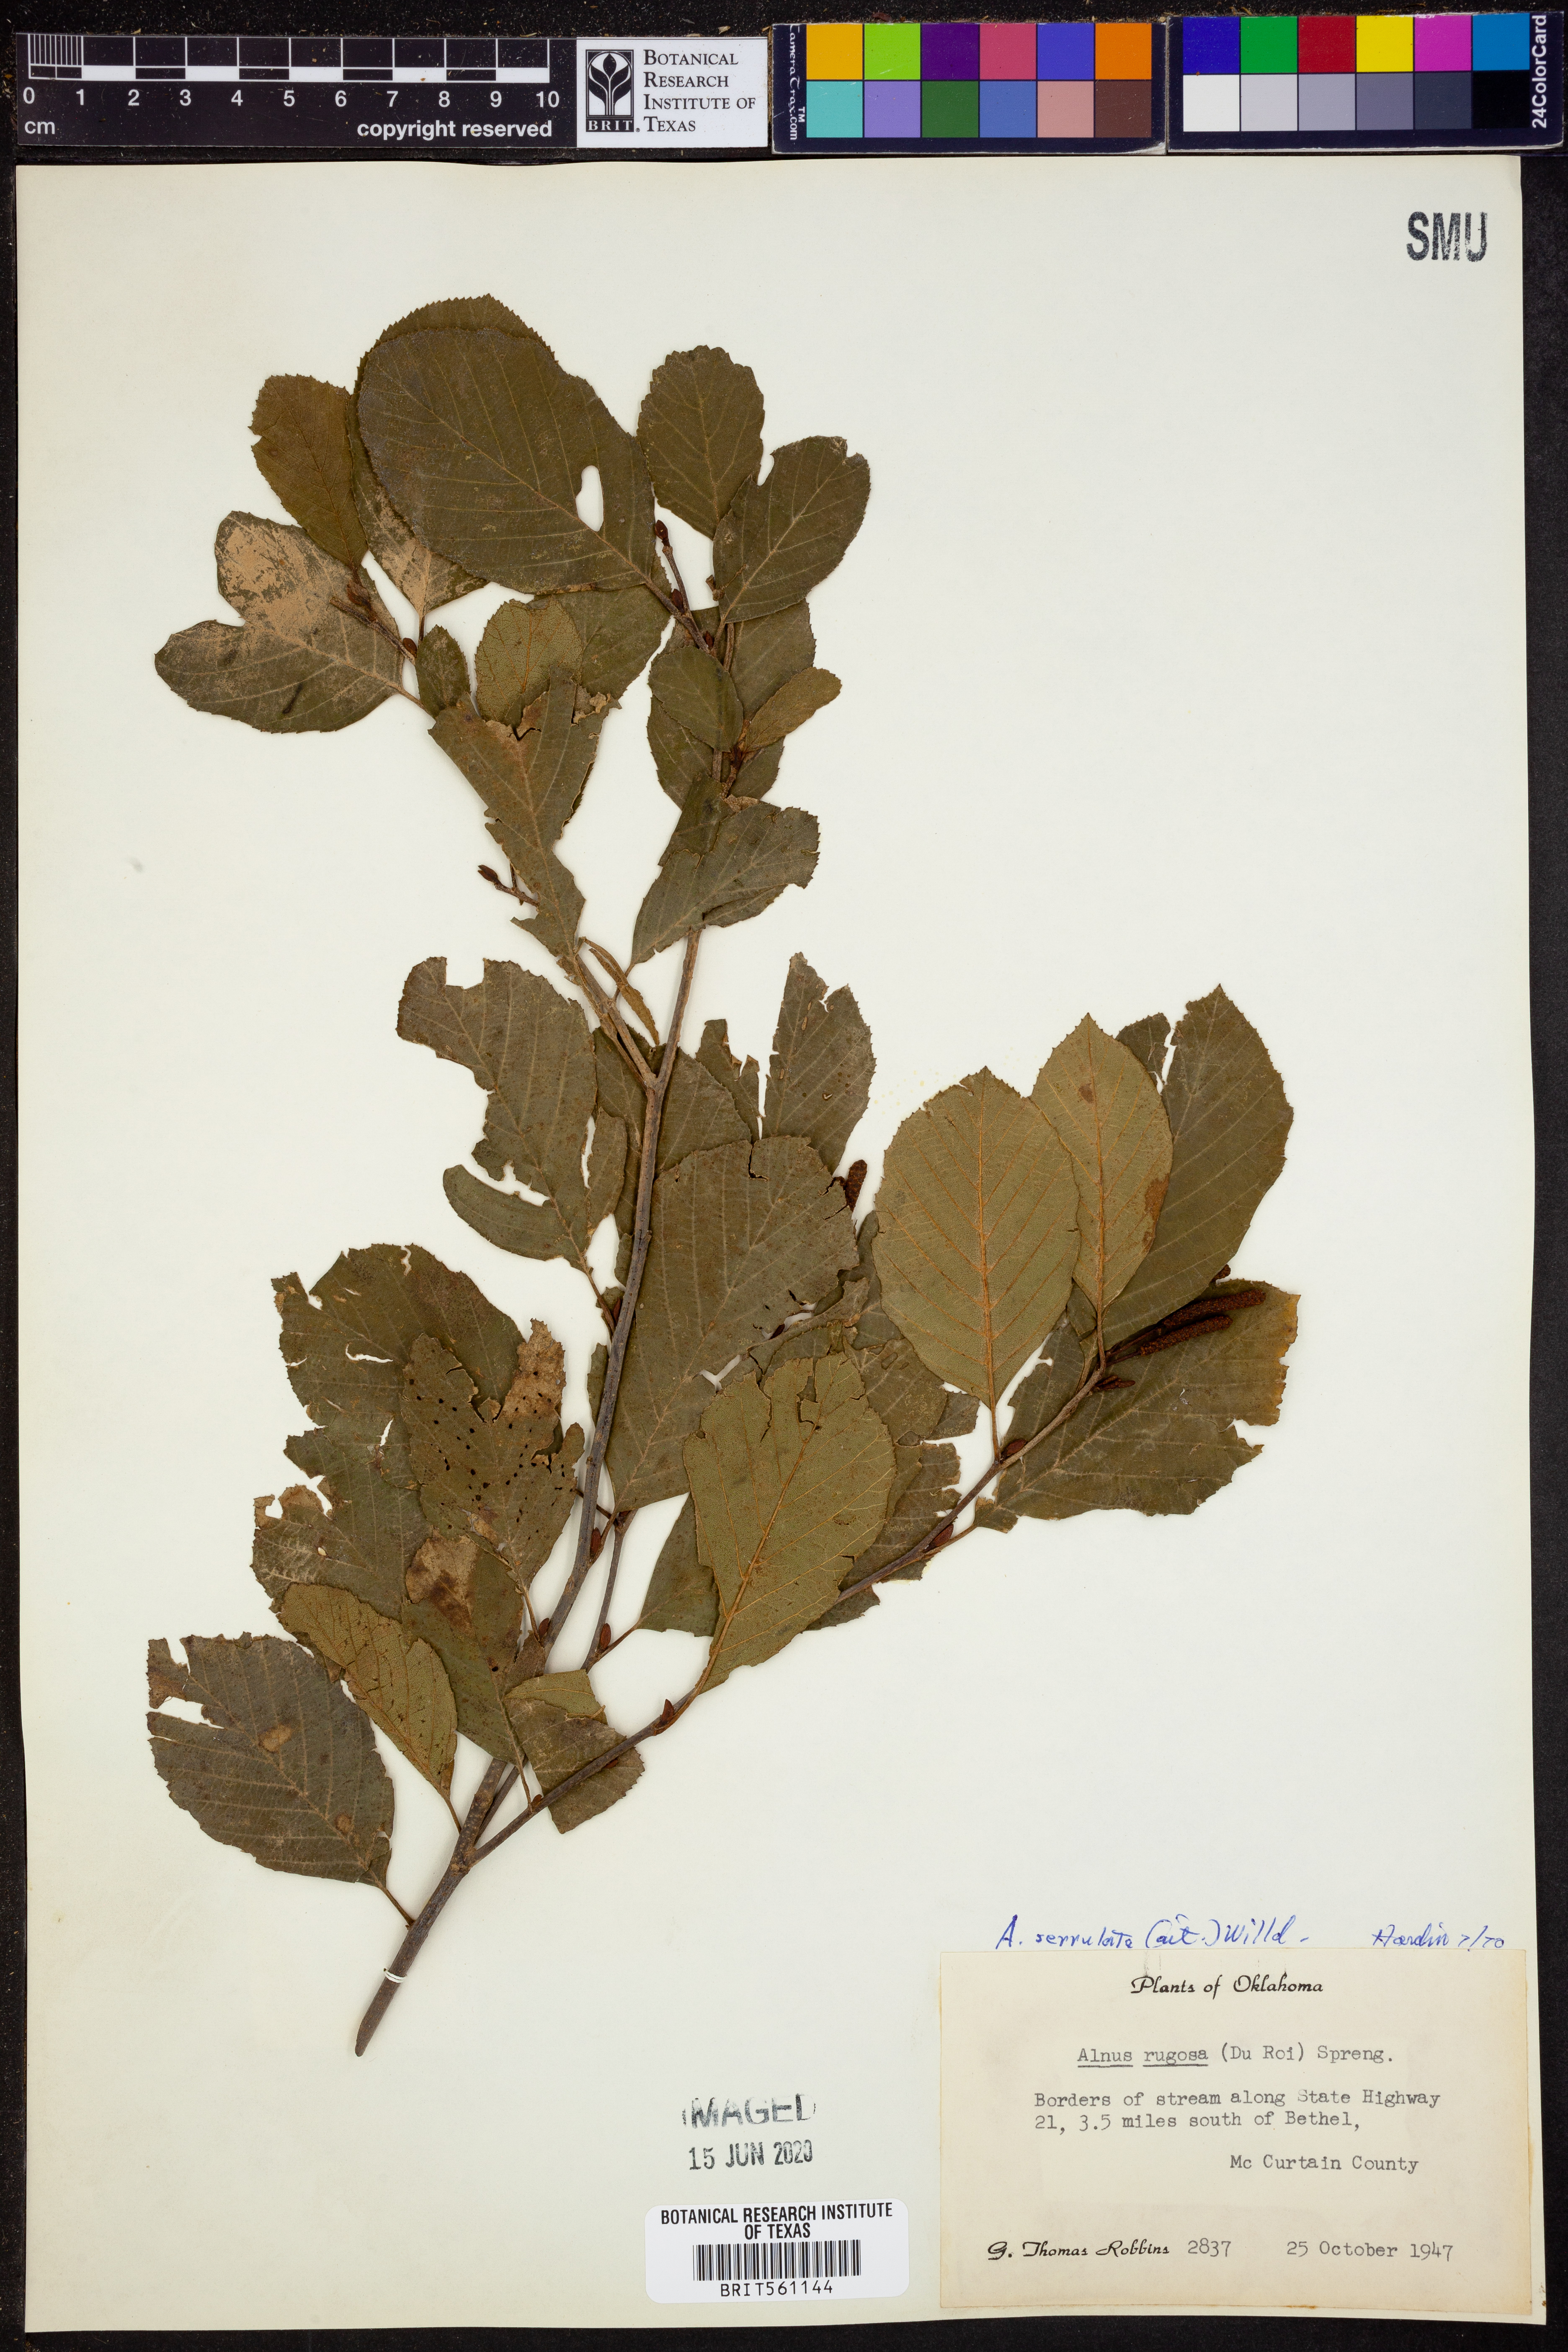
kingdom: Plantae
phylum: Tracheophyta
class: Magnoliopsida
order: Fagales
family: Betulaceae
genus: Alnus
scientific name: Alnus serrulata
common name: Hazel alder
